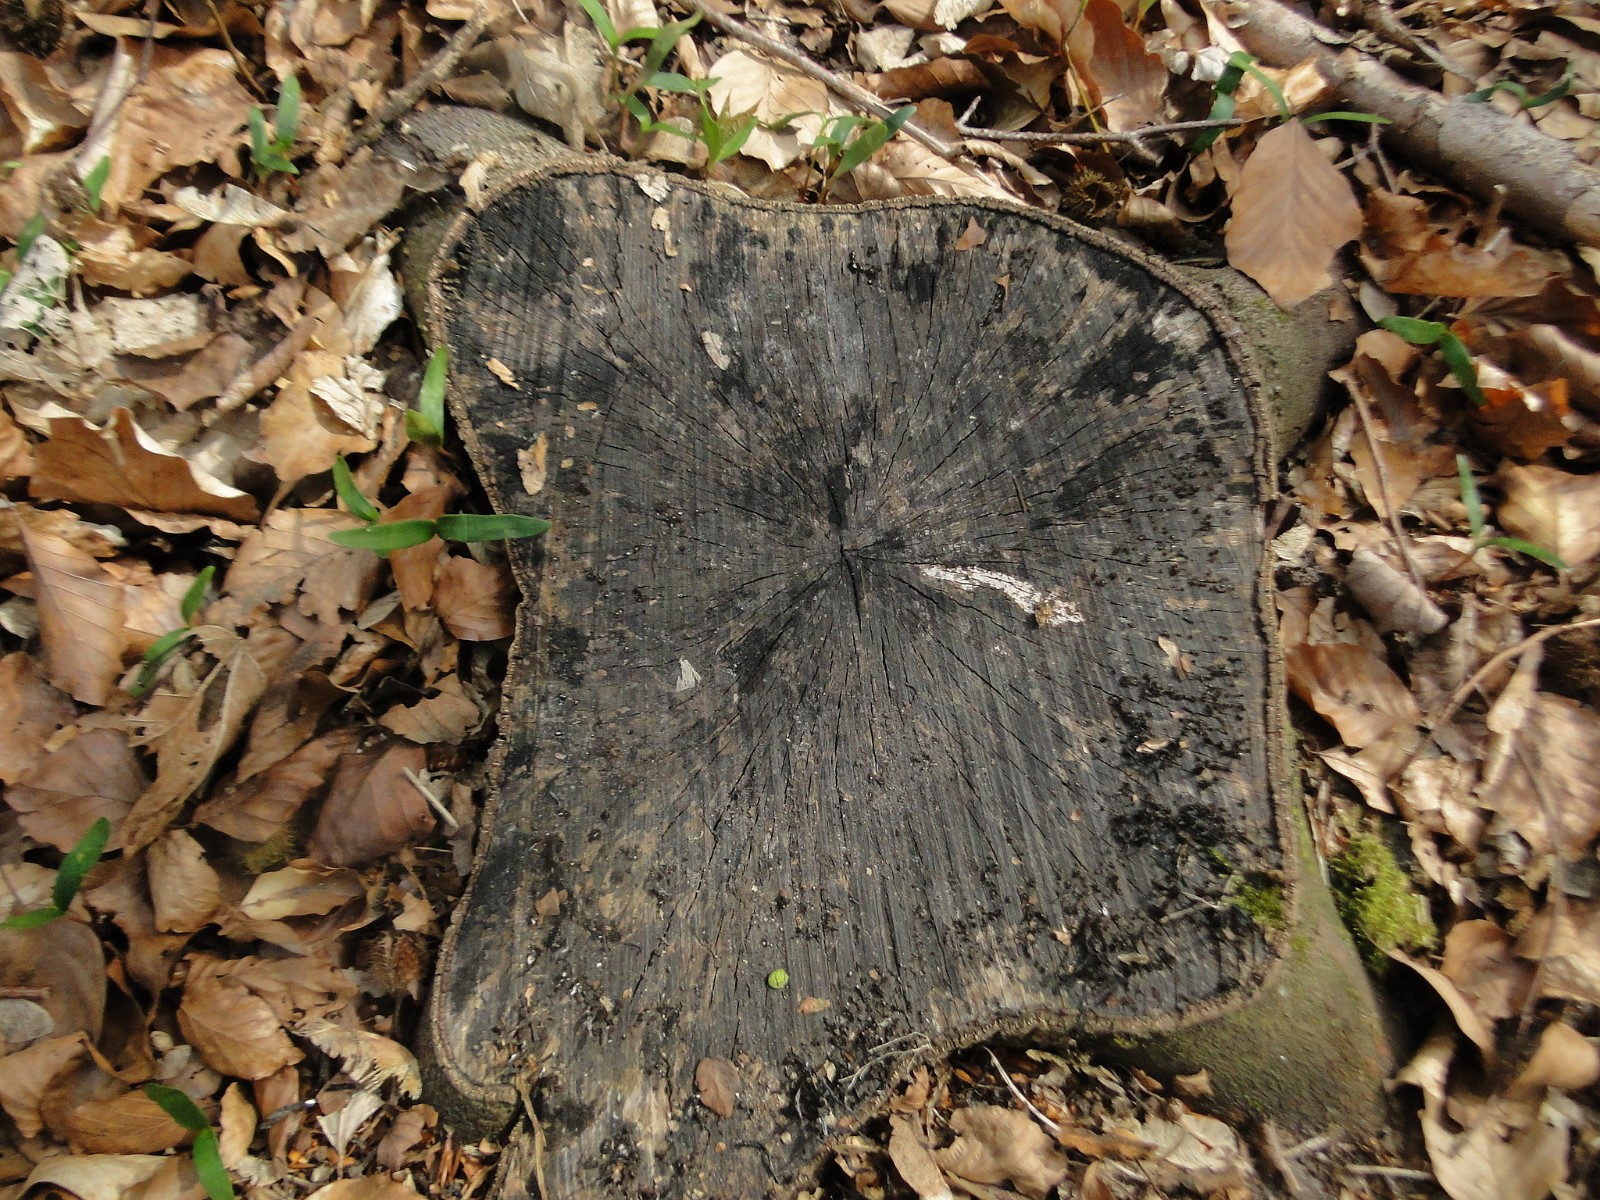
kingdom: Fungi
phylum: Ascomycota
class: Leotiomycetes
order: Helotiales
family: Helotiaceae
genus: Bispora
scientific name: Bispora pallescens
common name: måtte-snitskive
